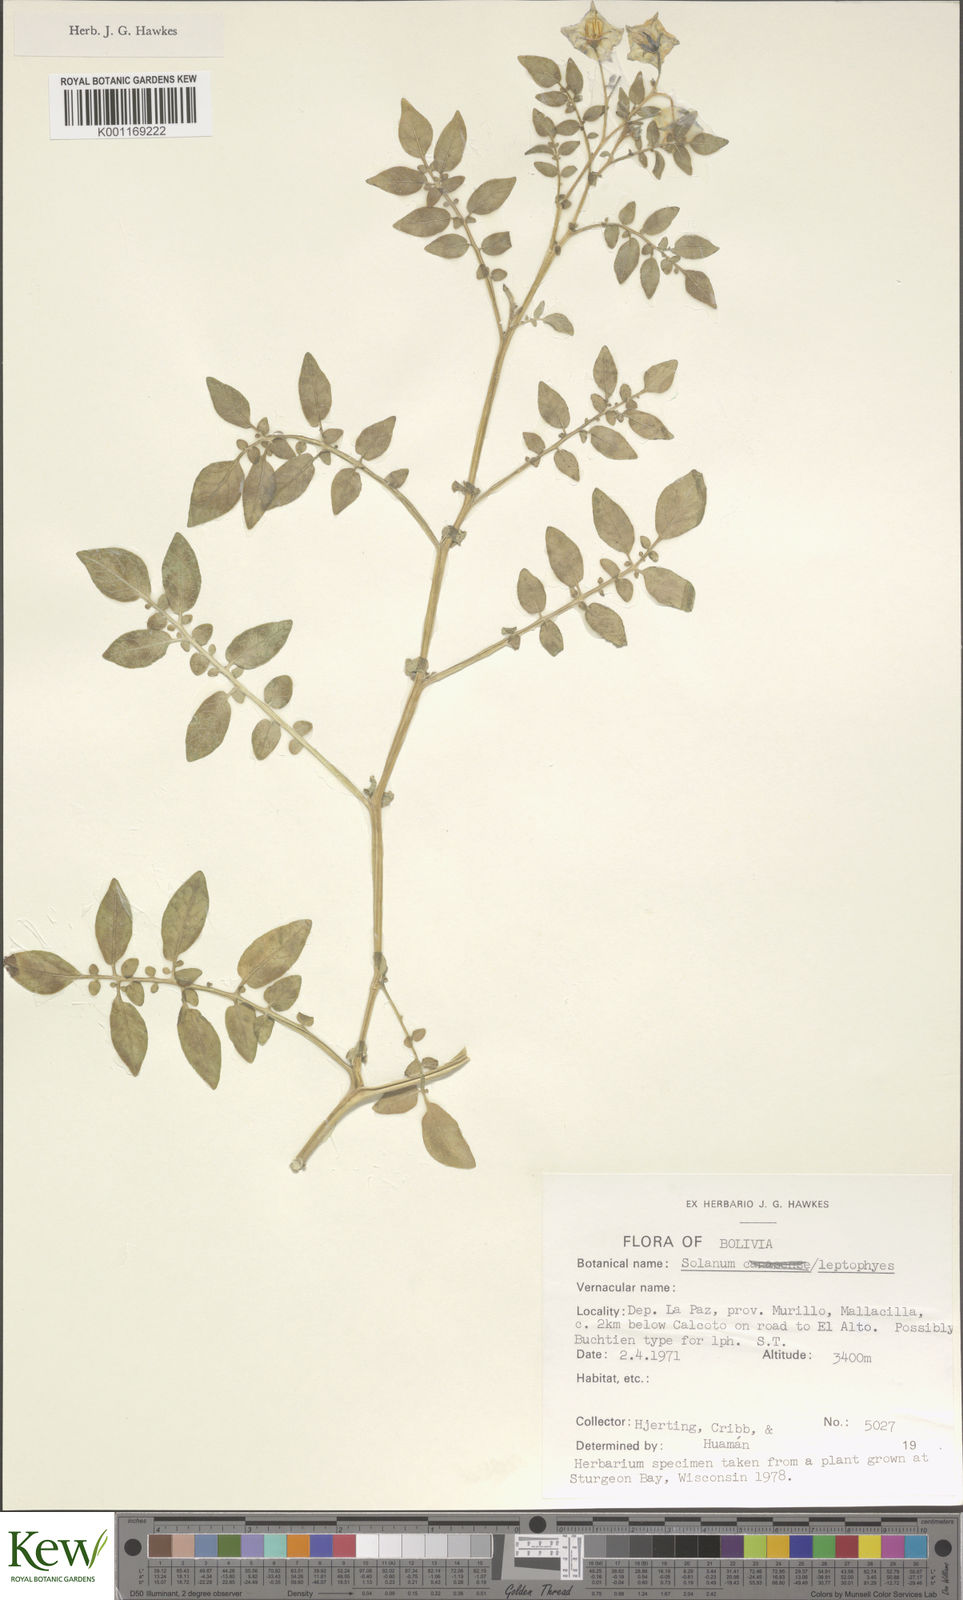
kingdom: Plantae
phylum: Tracheophyta
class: Magnoliopsida
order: Solanales
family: Solanaceae
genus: Solanum
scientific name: Solanum brevicaule
